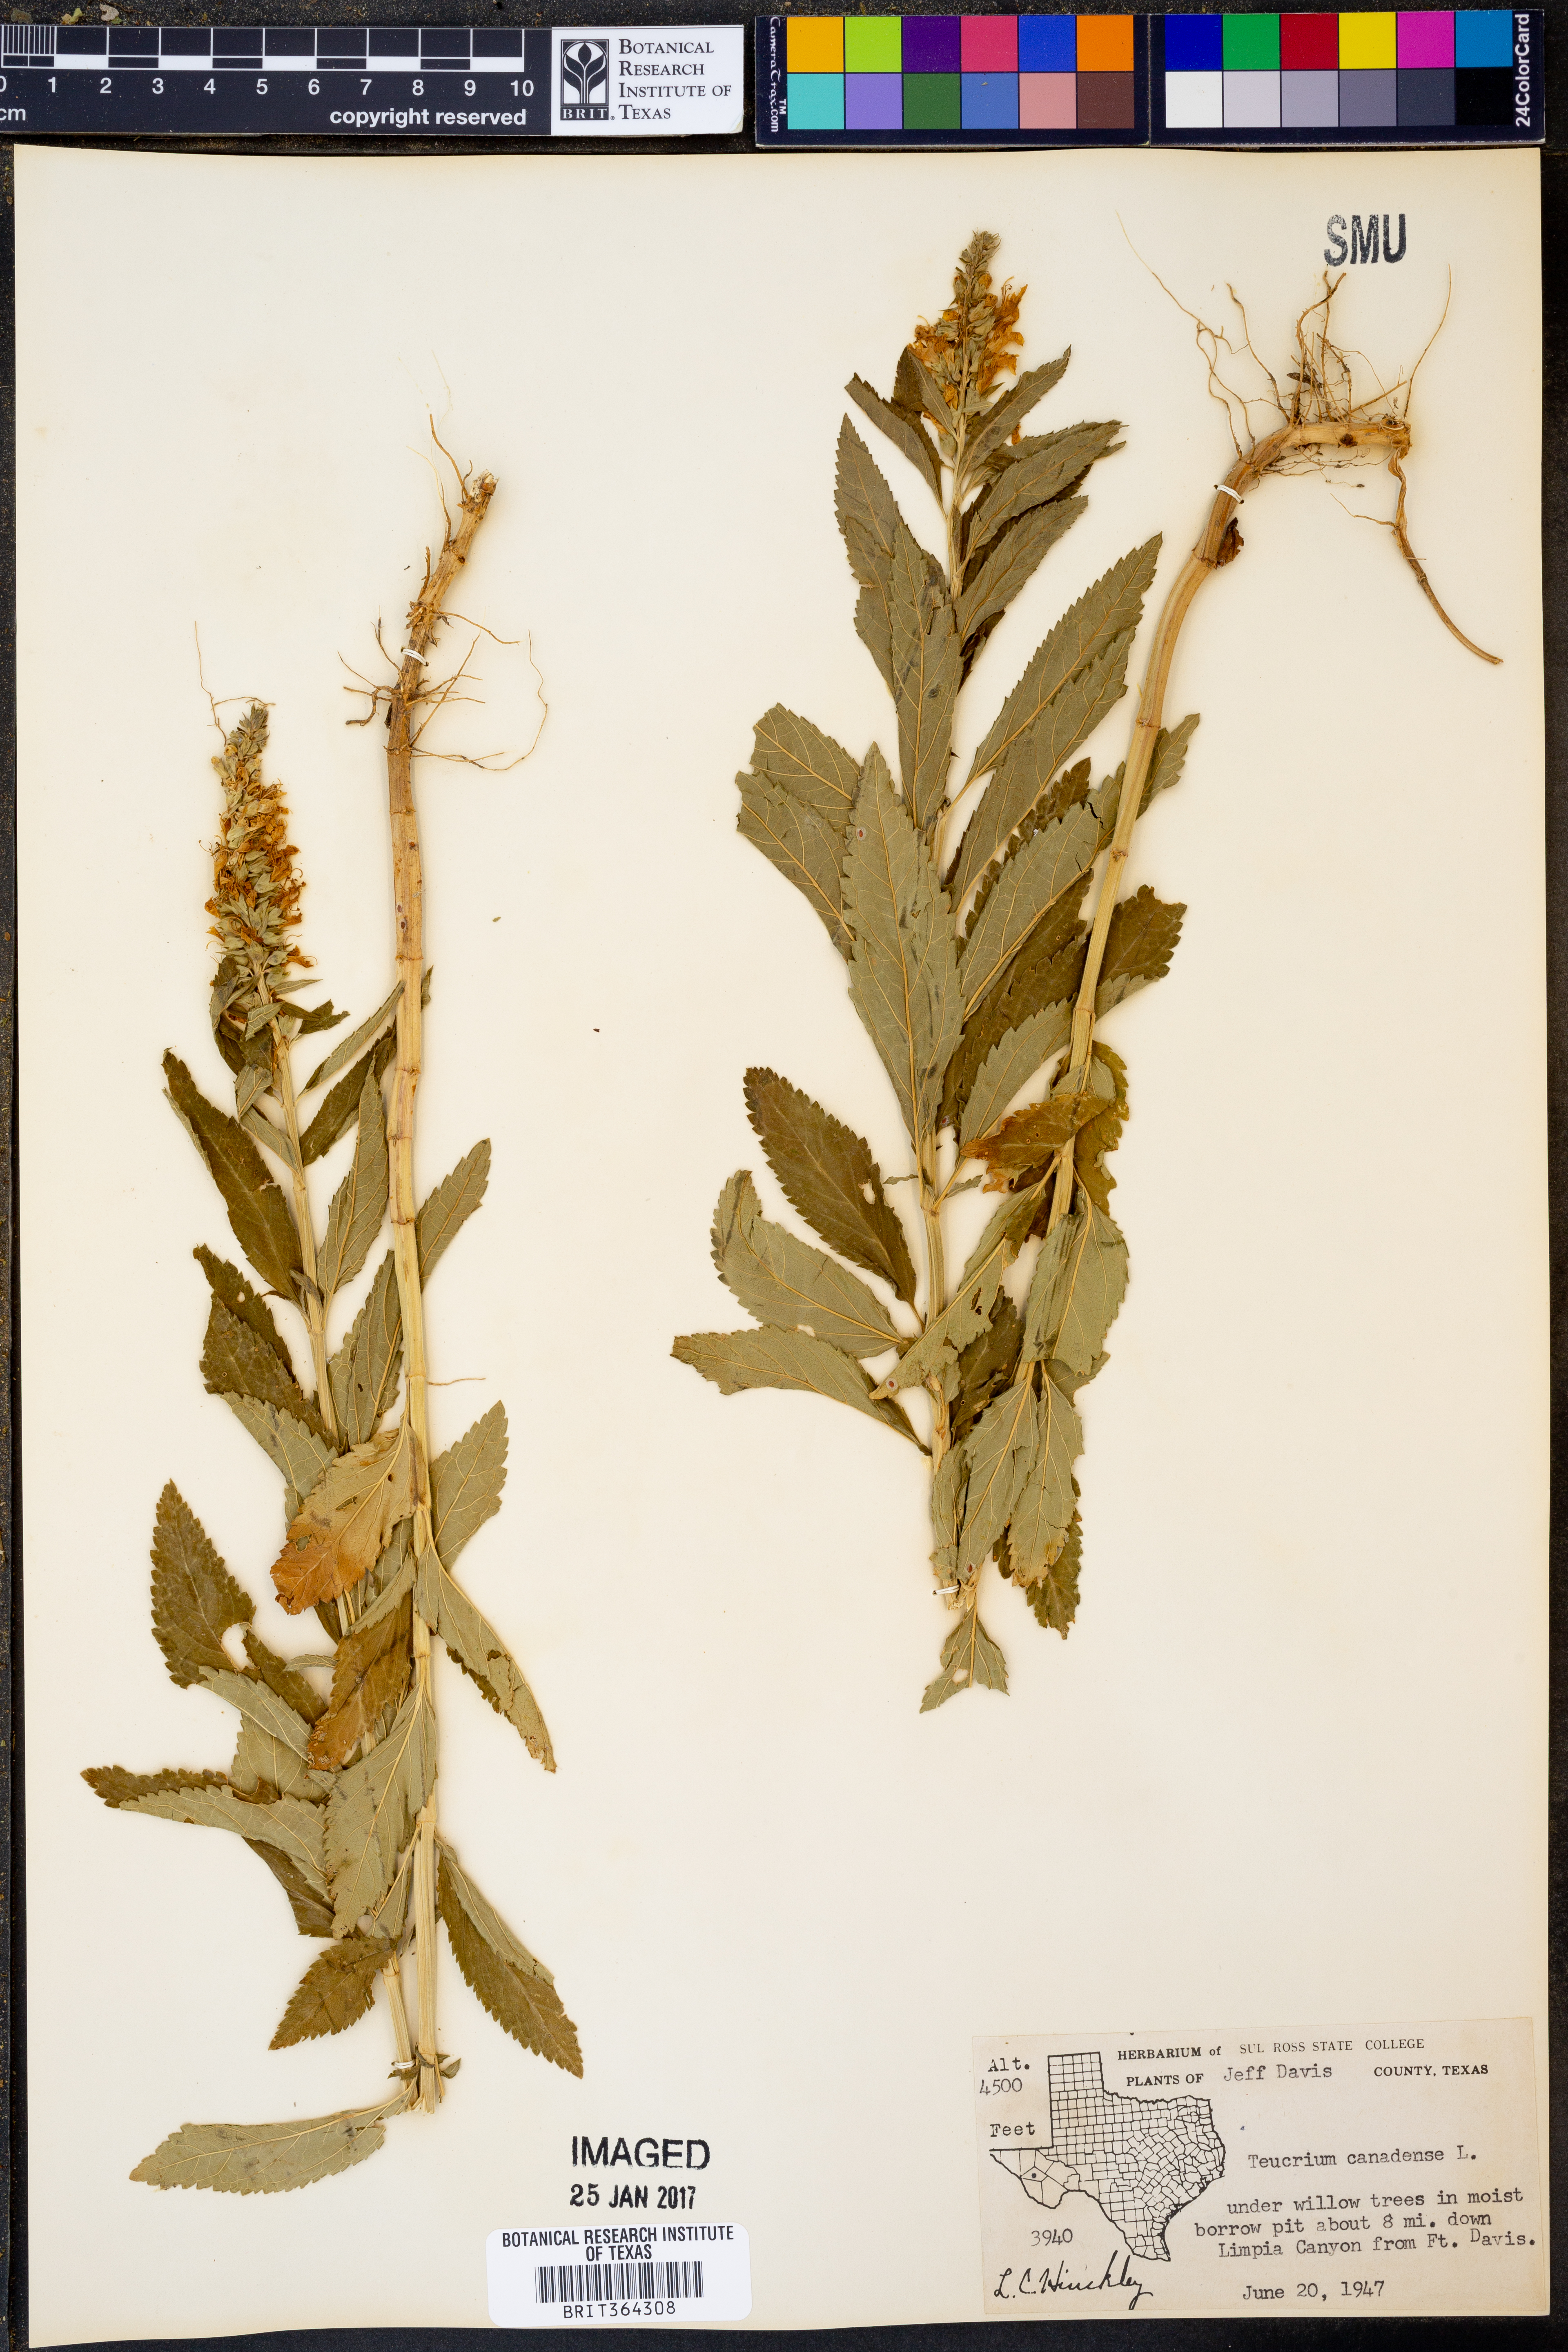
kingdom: Plantae
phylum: Tracheophyta
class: Magnoliopsida
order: Lamiales
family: Lamiaceae
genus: Teucrium
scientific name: Teucrium canadense
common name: American germander
